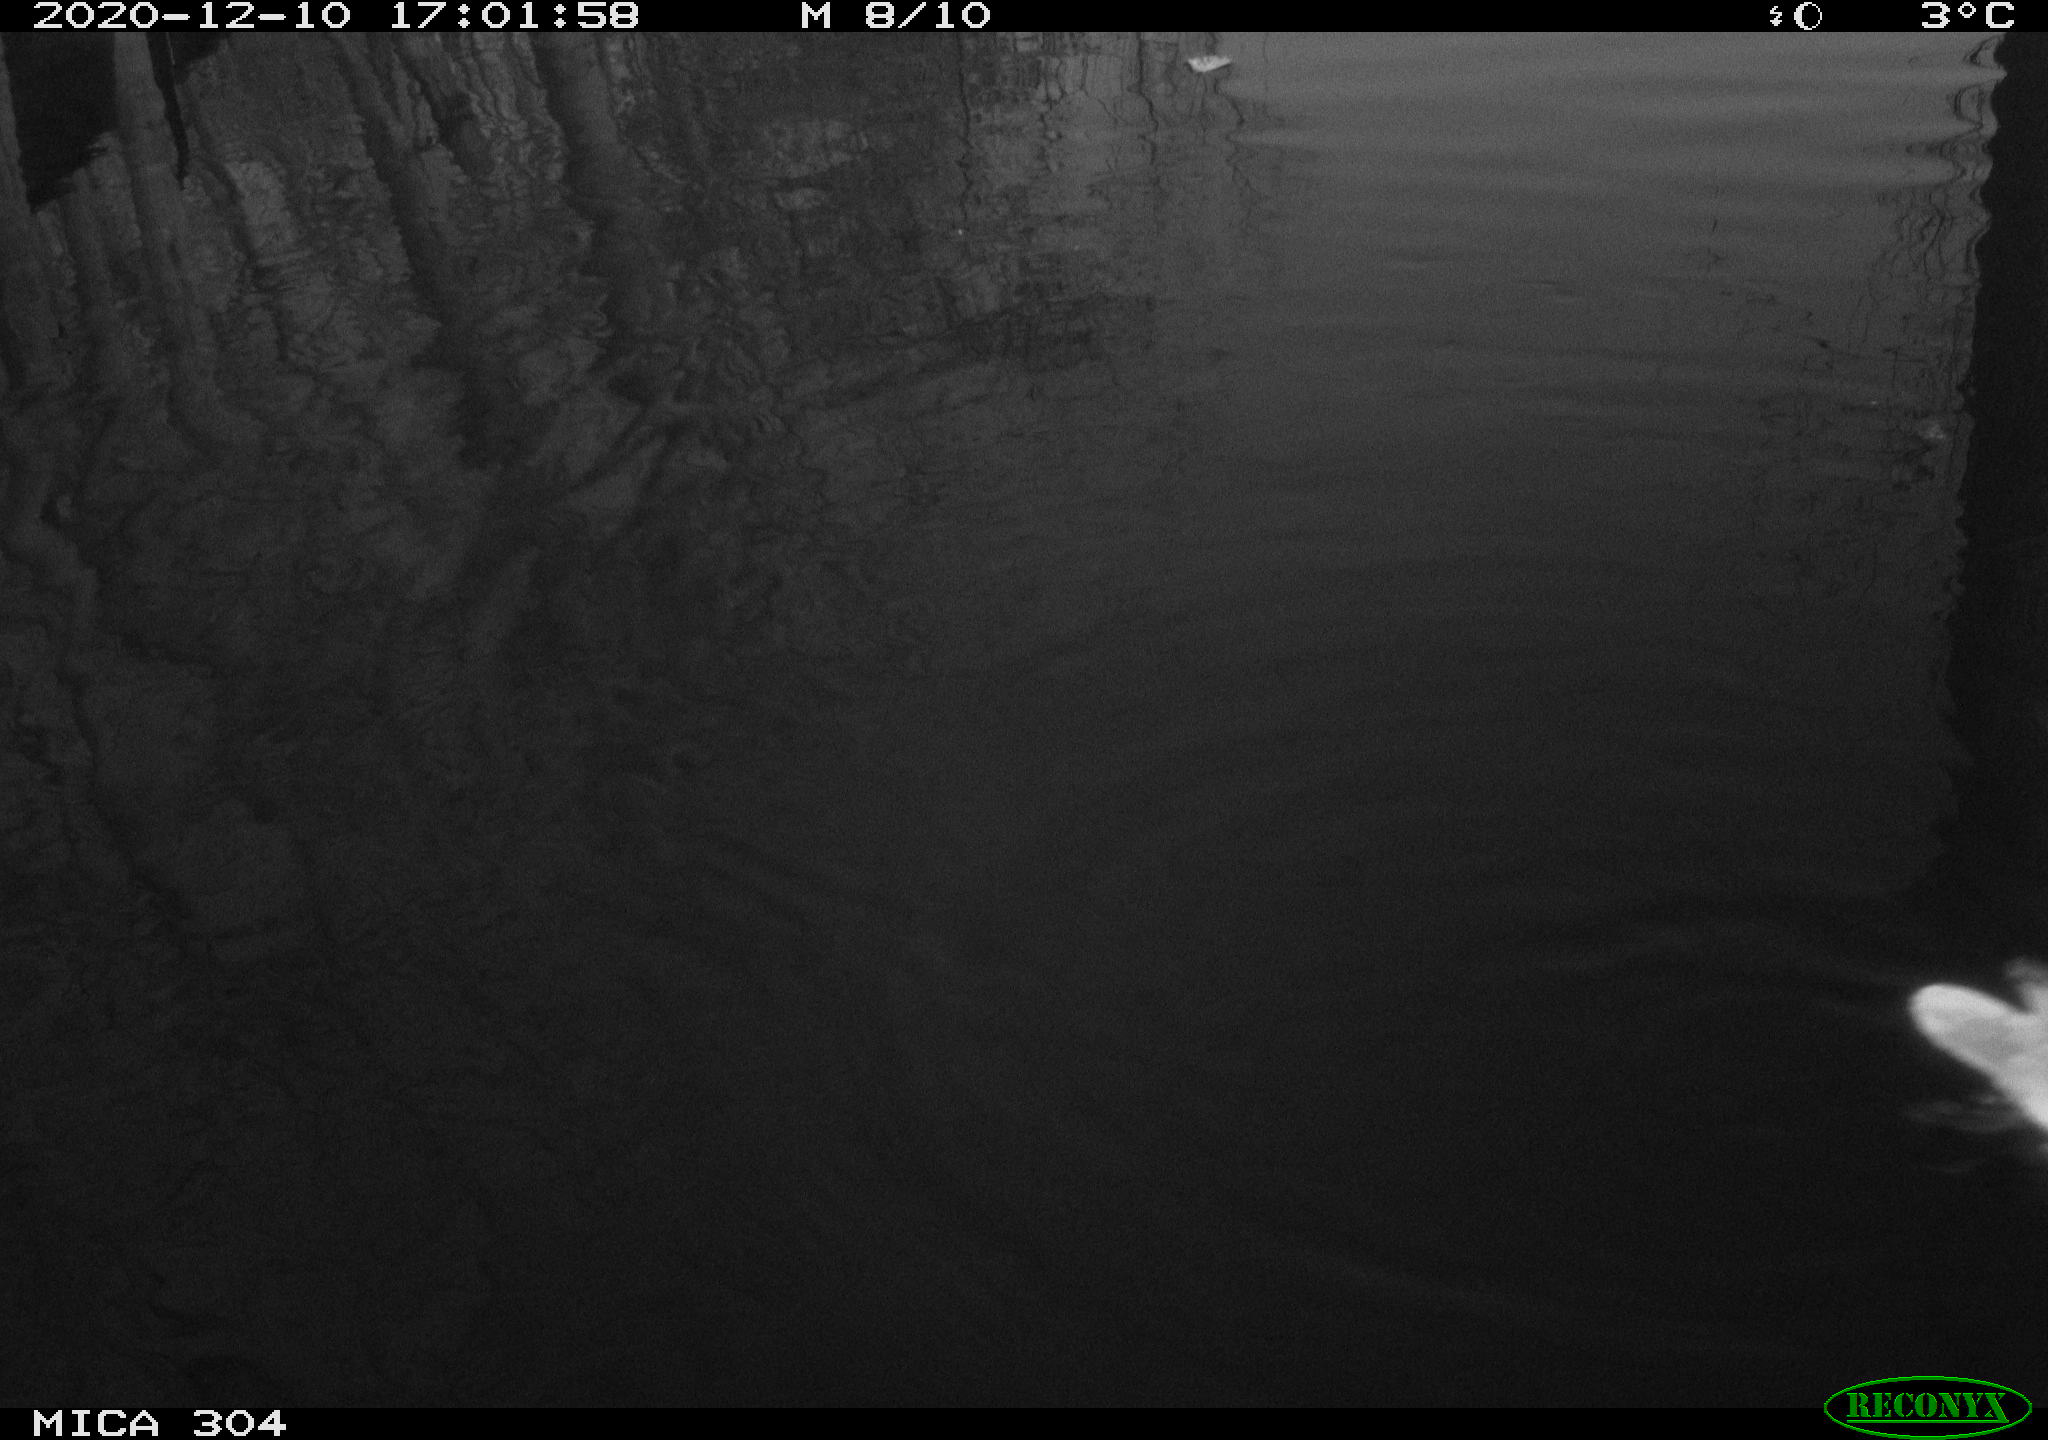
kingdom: Animalia
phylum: Chordata
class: Aves
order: Gruiformes
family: Rallidae
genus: Gallinula
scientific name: Gallinula chloropus
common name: Common moorhen
